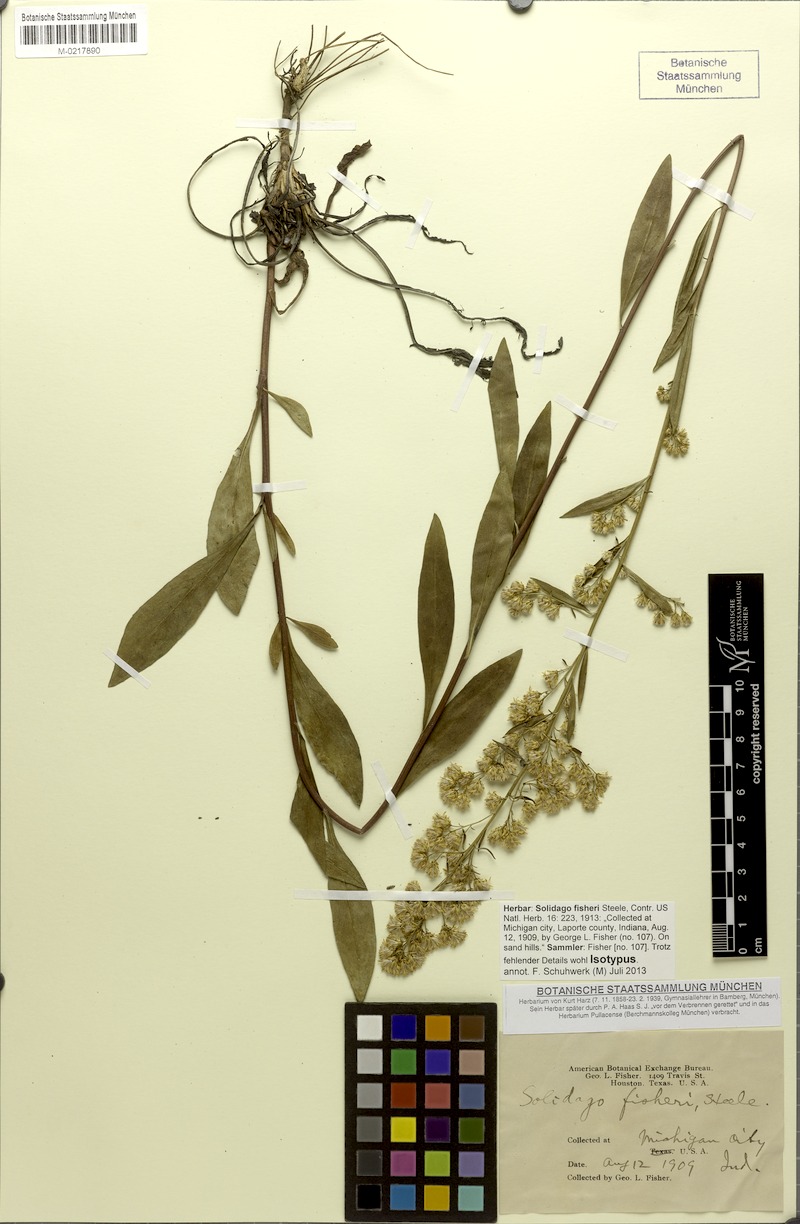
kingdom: Plantae
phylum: Tracheophyta
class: Magnoliopsida
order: Asterales
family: Asteraceae
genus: Solidago
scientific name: Solidago fisheri
